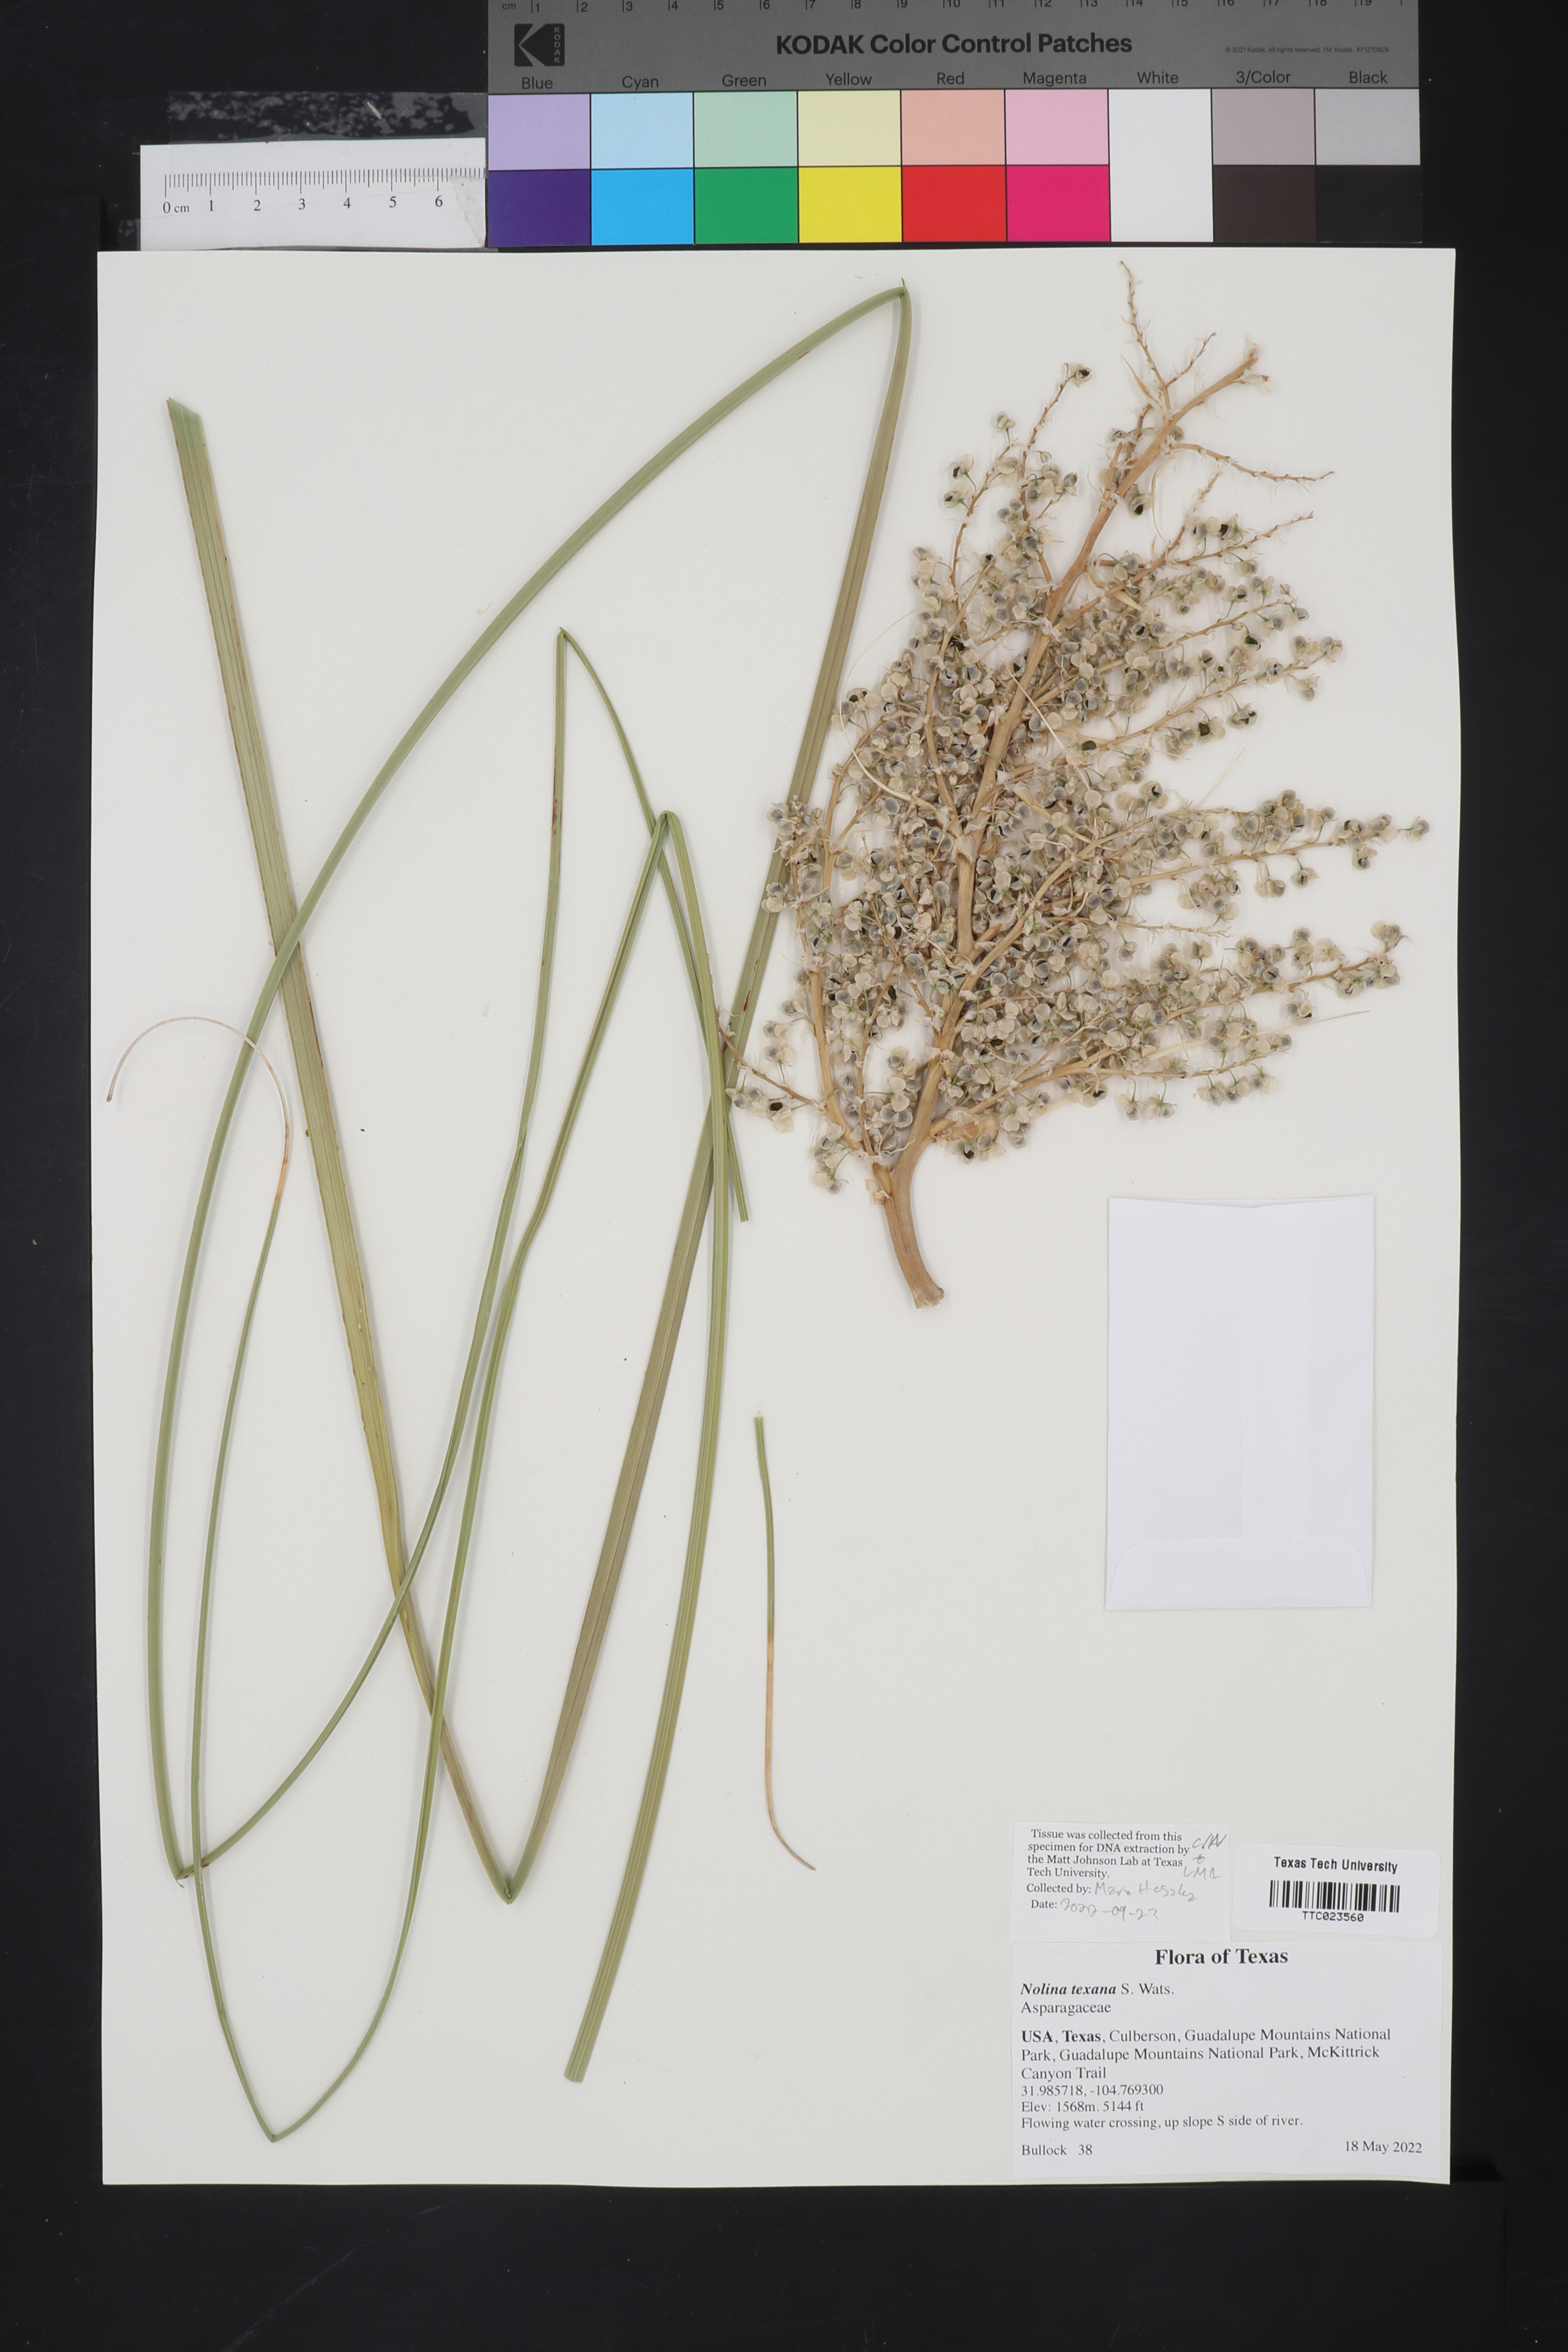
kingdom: Plantae
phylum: Tracheophyta
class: Liliopsida
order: Asparagales
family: Asparagaceae
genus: Nolina
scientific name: Nolina texana
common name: Texas sacahuiste
